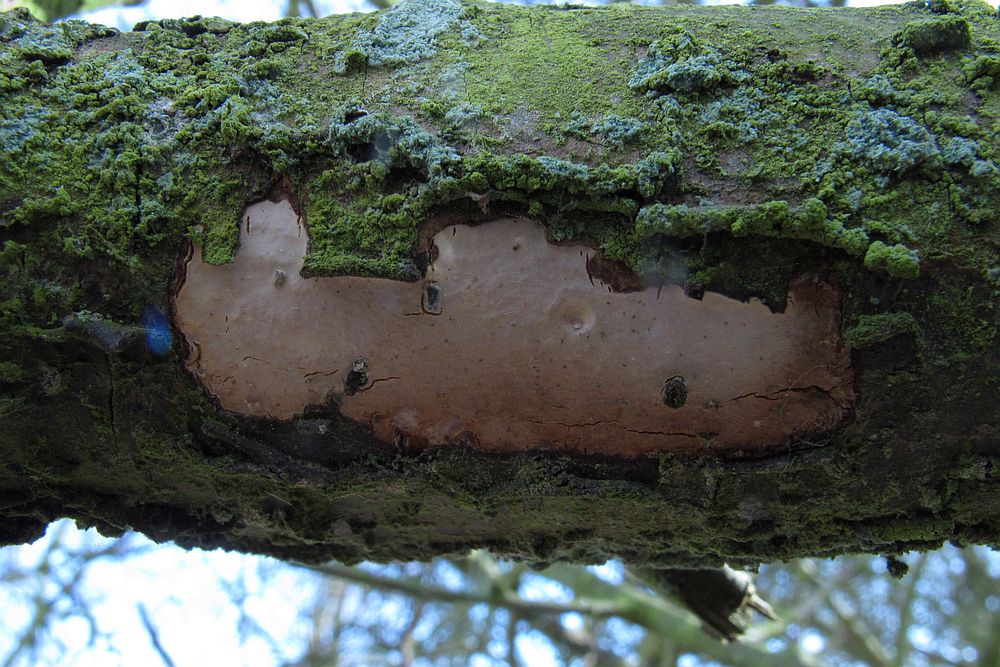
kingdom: Fungi
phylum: Basidiomycota
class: Agaricomycetes
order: Corticiales
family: Vuilleminiaceae
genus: Vuilleminia
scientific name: Vuilleminia cystidiata
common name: tjørne-barksprænger
